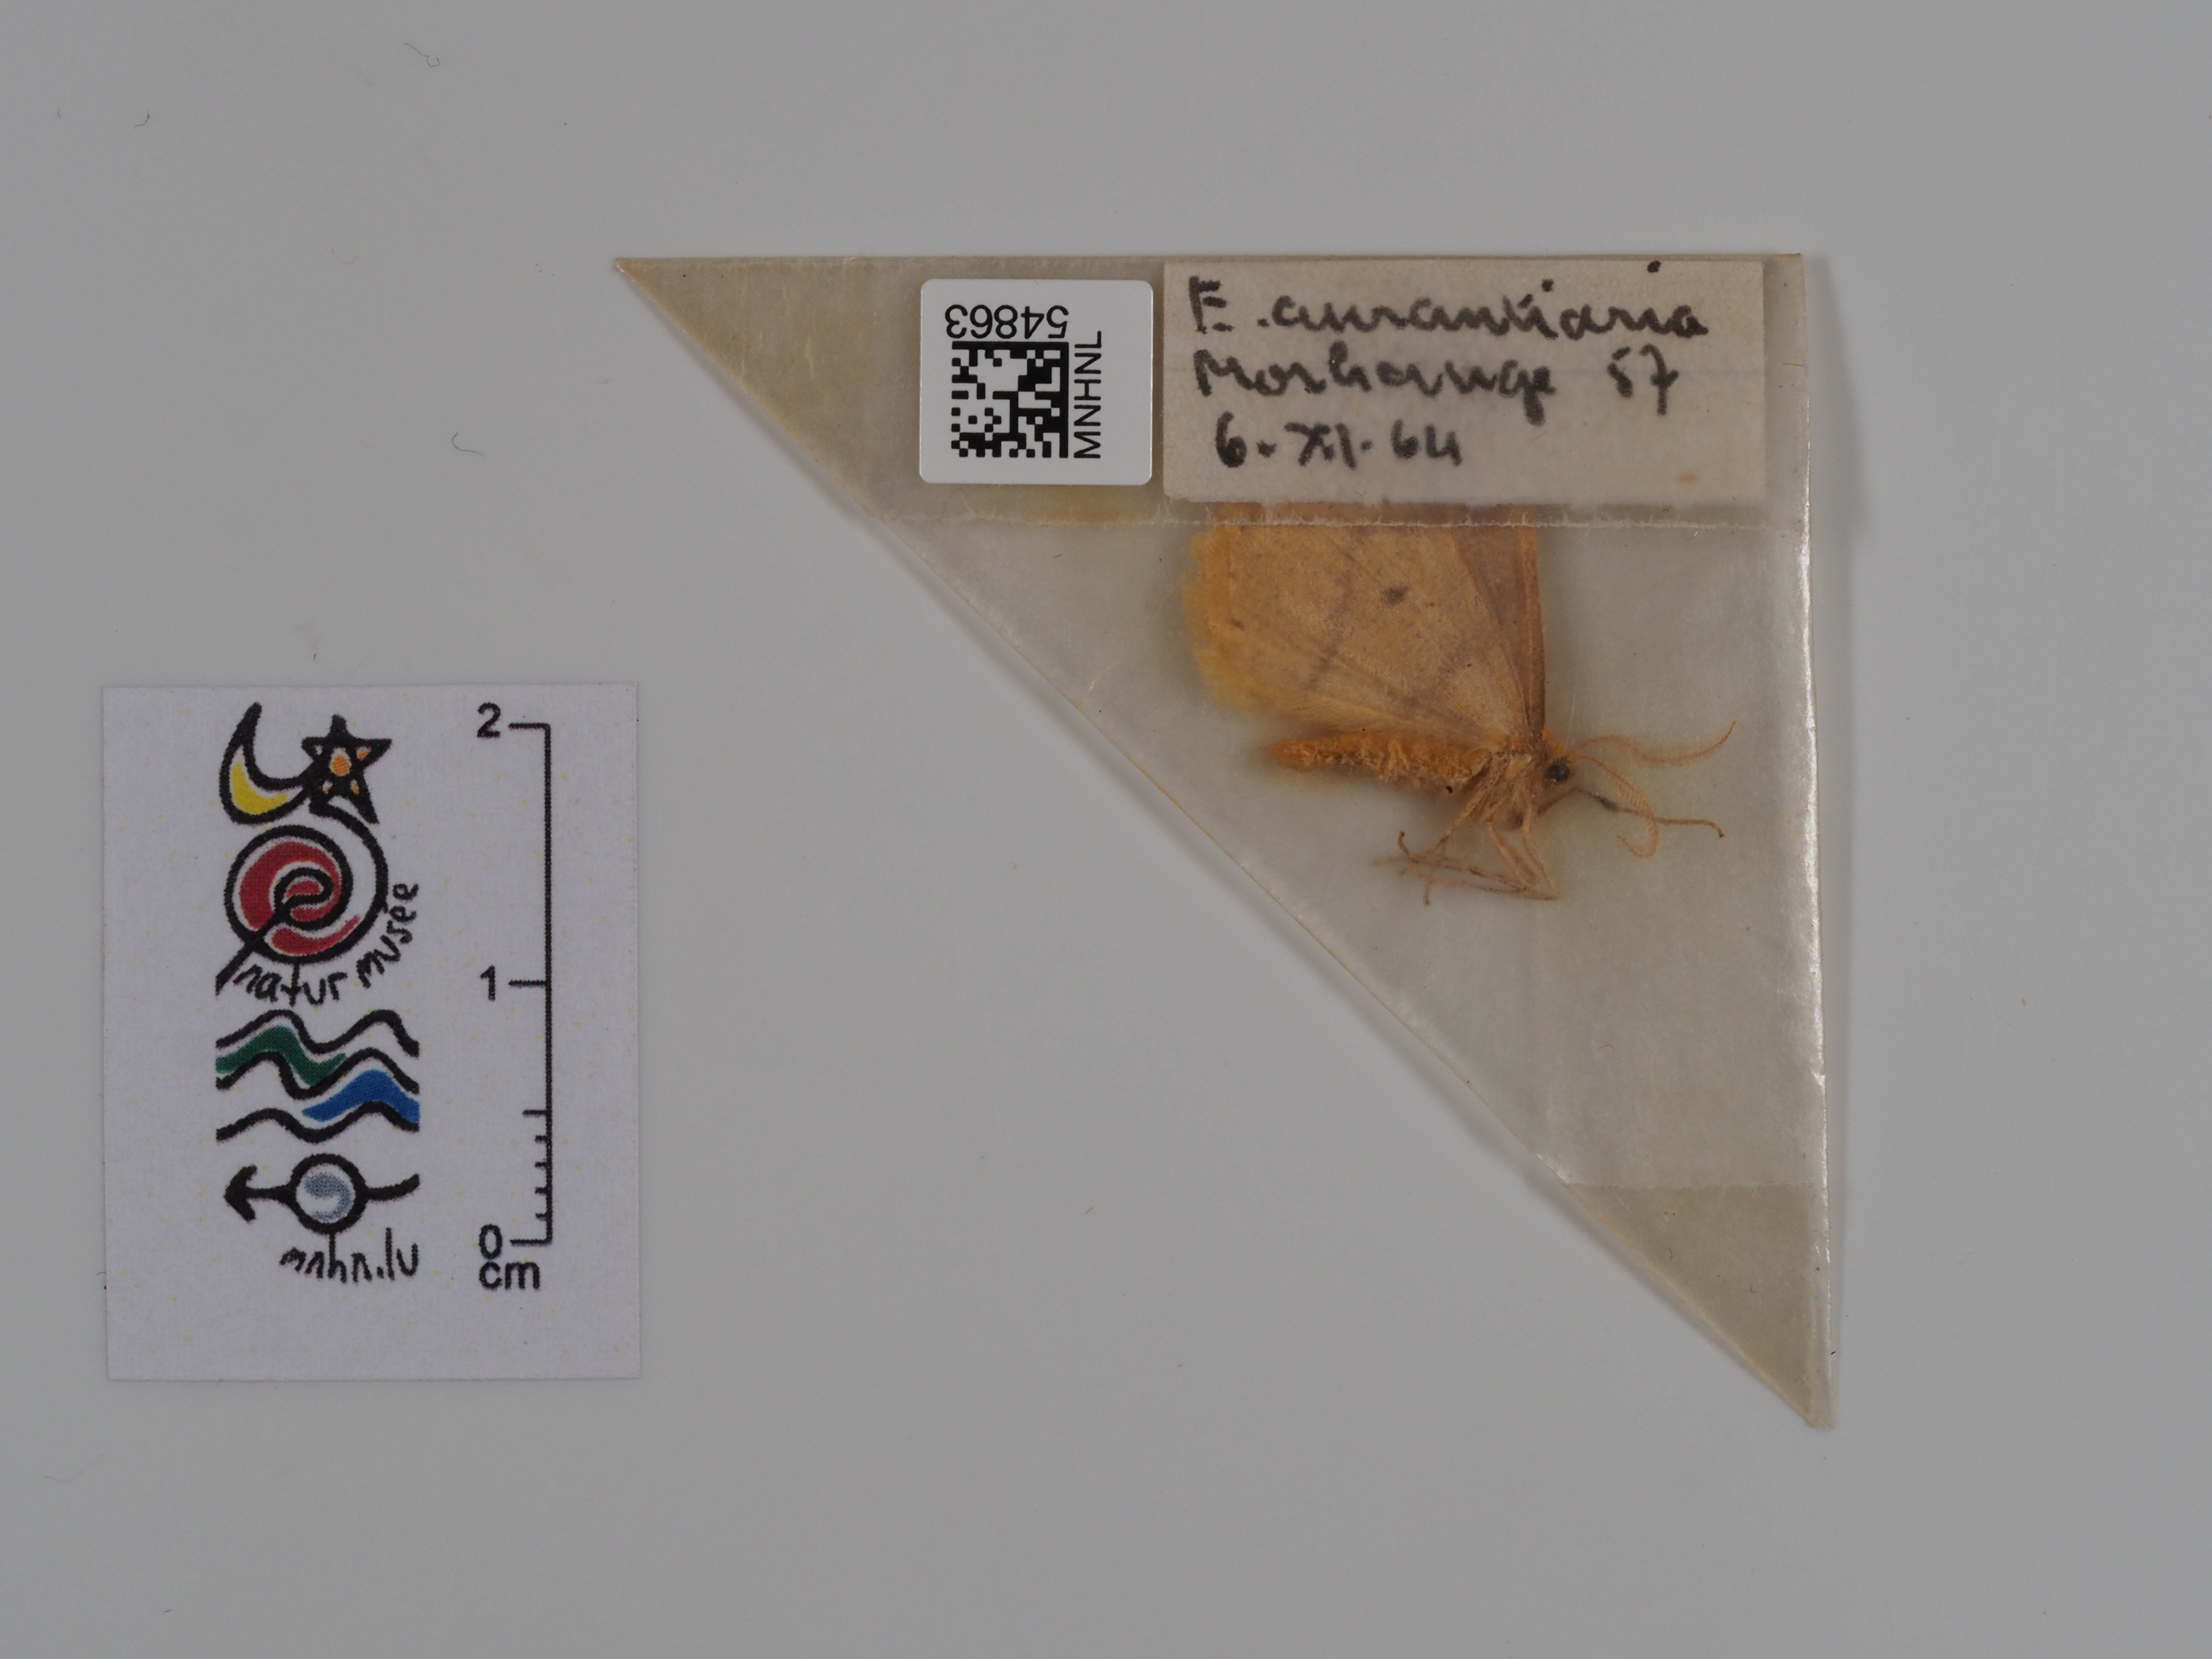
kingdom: Animalia
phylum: Arthropoda
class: Insecta
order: Lepidoptera
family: Geometridae
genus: Erannis
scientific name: Erannis
